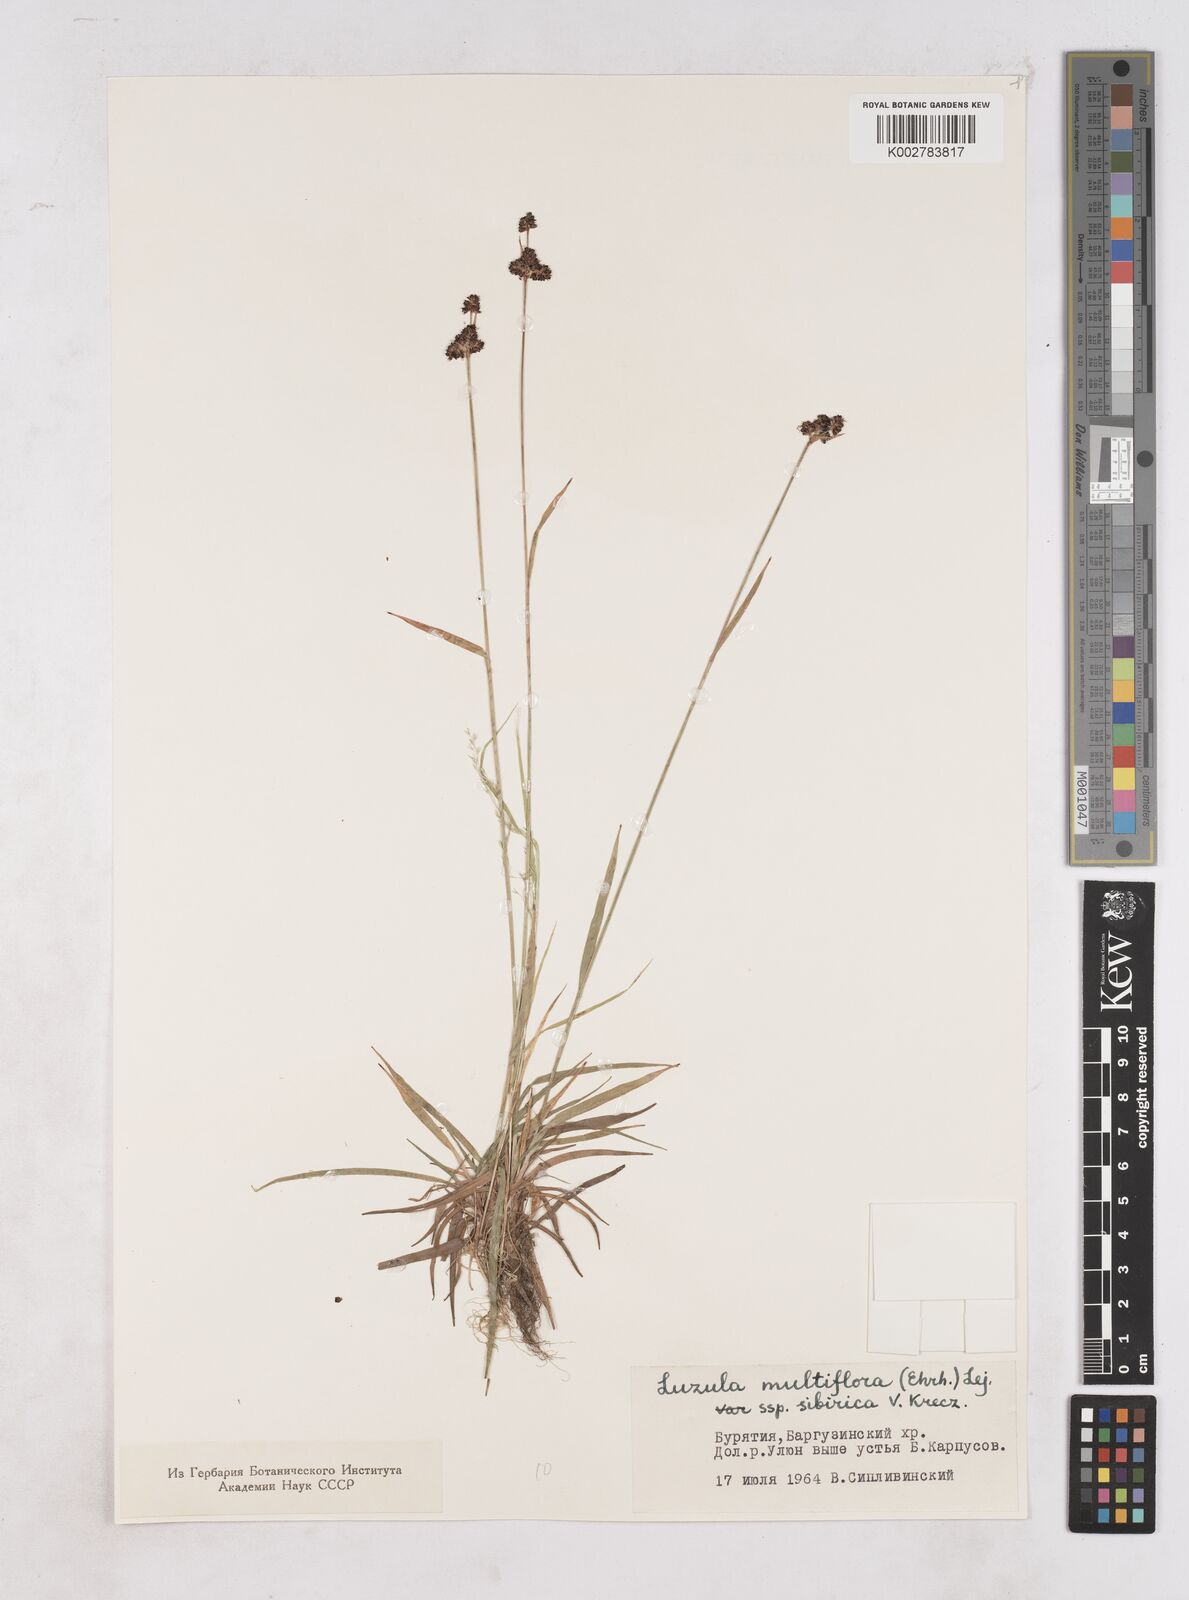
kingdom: Plantae
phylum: Tracheophyta
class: Liliopsida
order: Poales
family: Juncaceae
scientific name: Juncaceae
